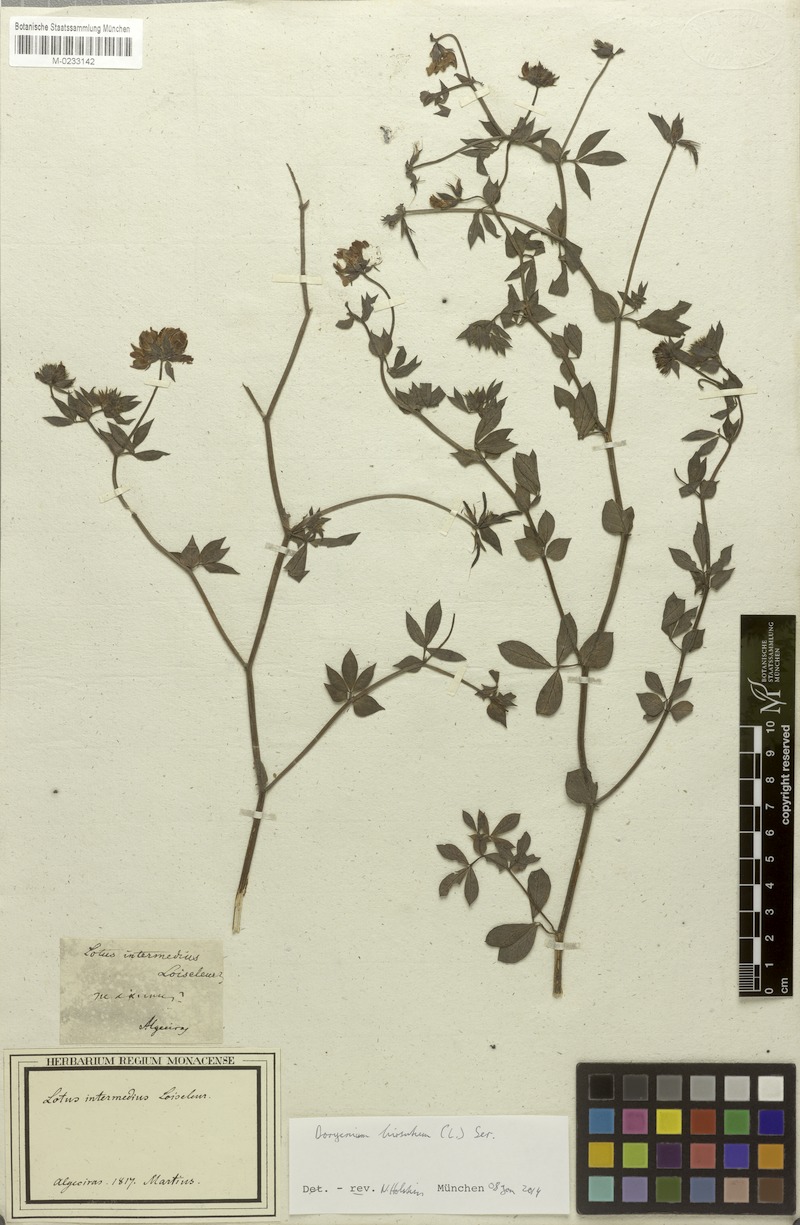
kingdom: Plantae
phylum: Tracheophyta
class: Magnoliopsida
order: Fabales
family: Fabaceae
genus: Lotus
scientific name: Lotus hirsutus
